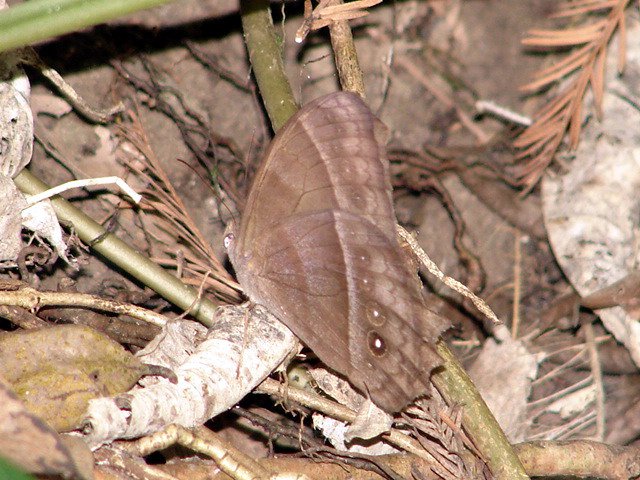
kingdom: Animalia
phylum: Arthropoda
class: Insecta
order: Lepidoptera
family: Nymphalidae
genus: Taygetis
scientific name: Taygetis thamyra
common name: Thamyra Satyr
